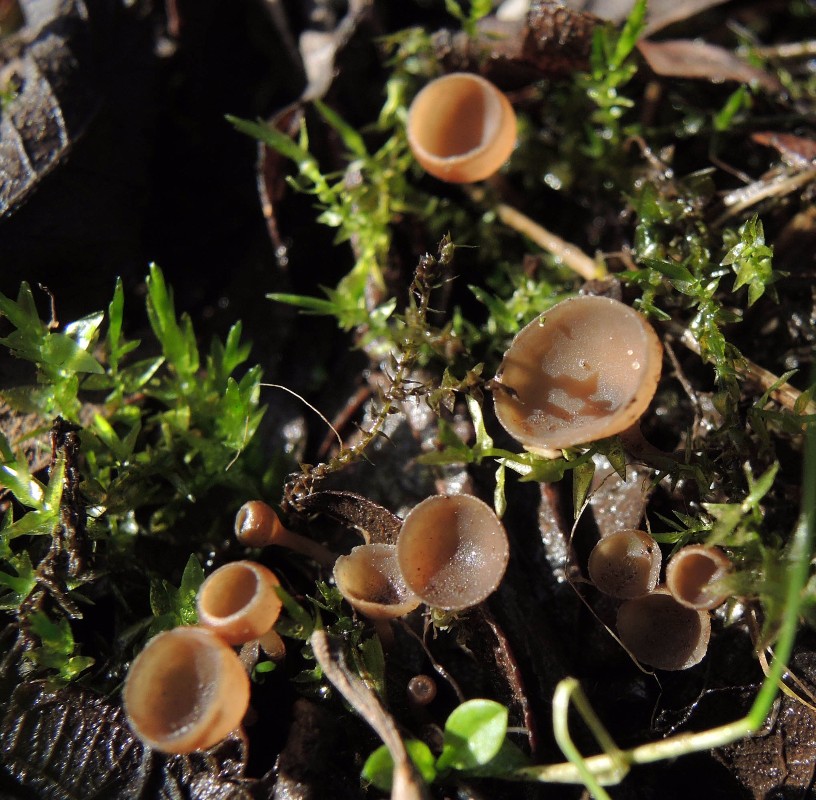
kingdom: Fungi
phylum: Ascomycota
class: Leotiomycetes
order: Helotiales
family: Sclerotiniaceae
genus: Ciboria
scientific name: Ciboria caucus
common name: rakle-knoldskive
